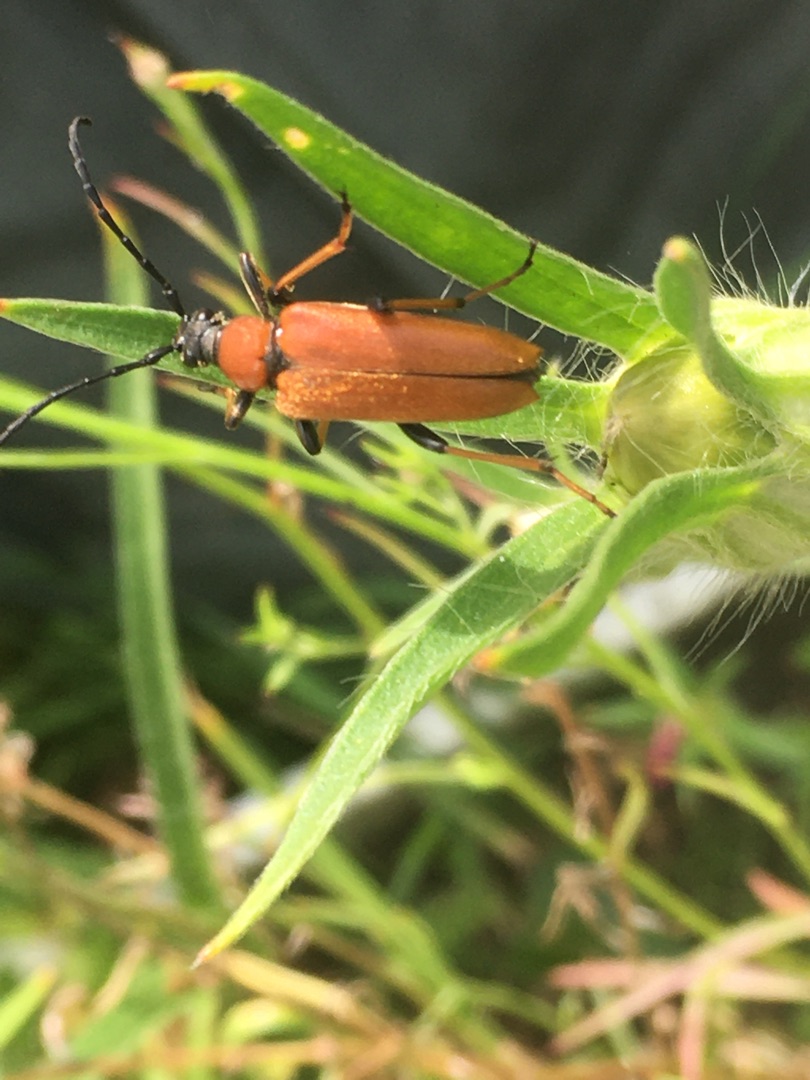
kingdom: Animalia
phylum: Arthropoda
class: Insecta
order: Coleoptera
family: Cerambycidae
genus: Stictoleptura
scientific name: Stictoleptura rubra
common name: Rød blomsterbuk
